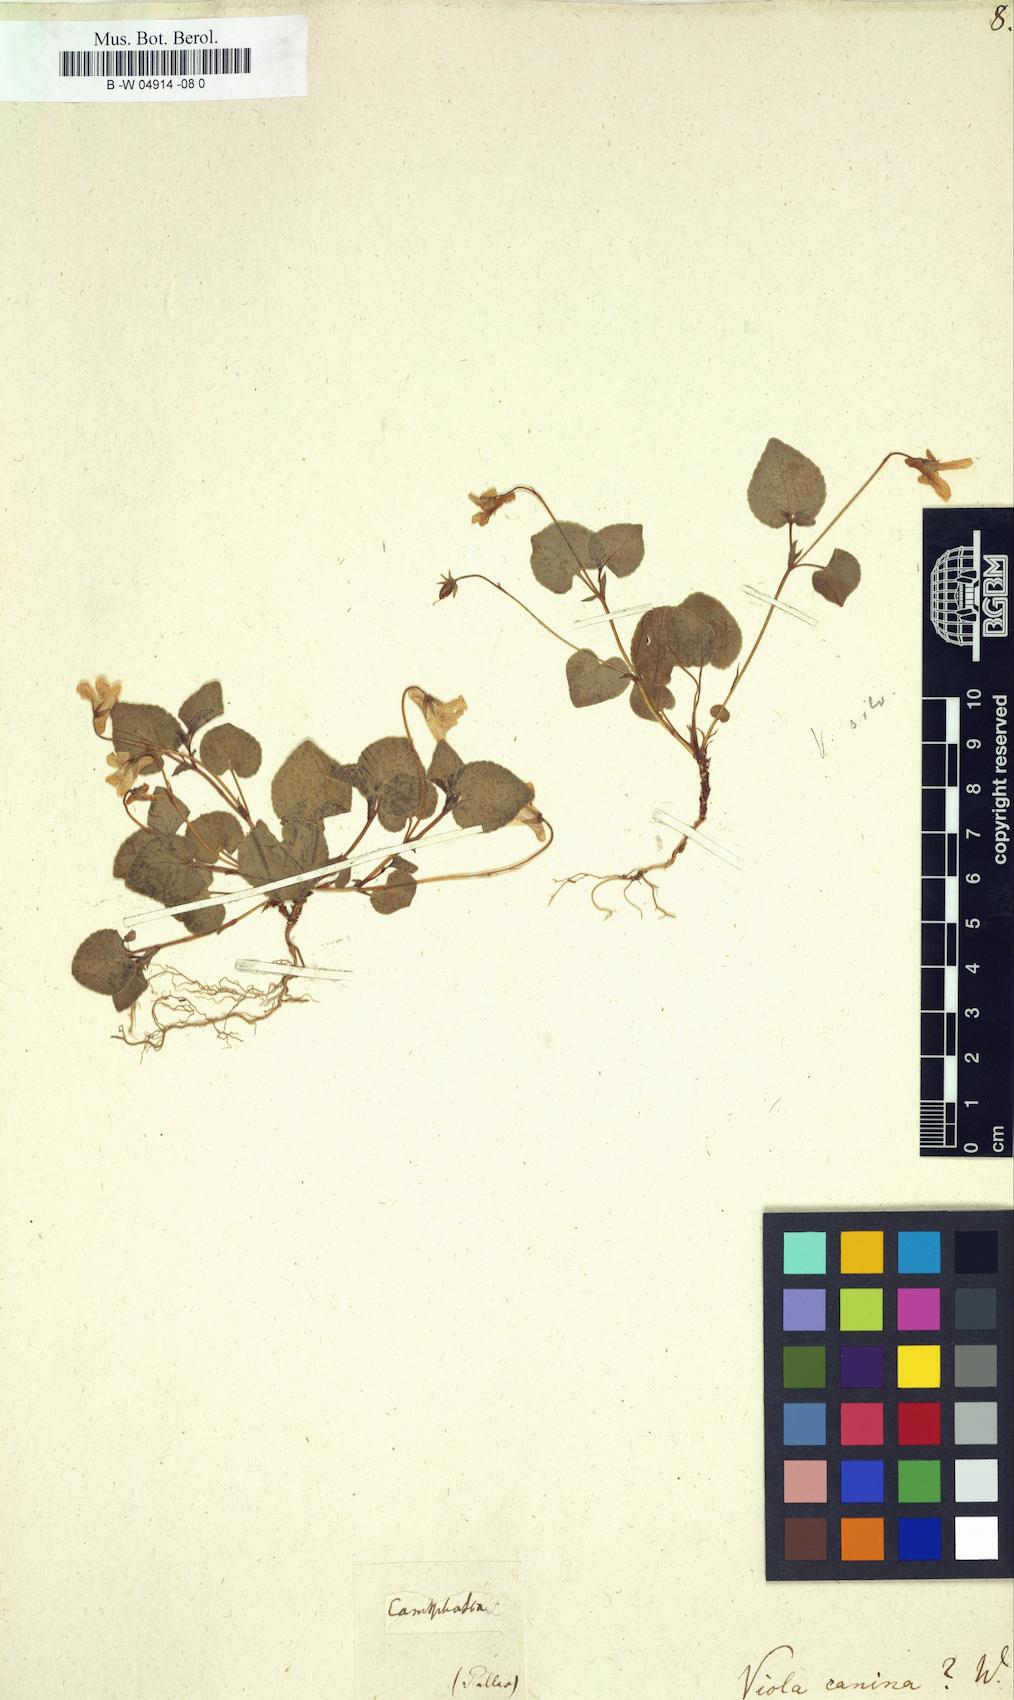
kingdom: Plantae
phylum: Tracheophyta
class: Magnoliopsida
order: Malpighiales
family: Violaceae
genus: Viola
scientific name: Viola canina
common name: Heath dog-violet
